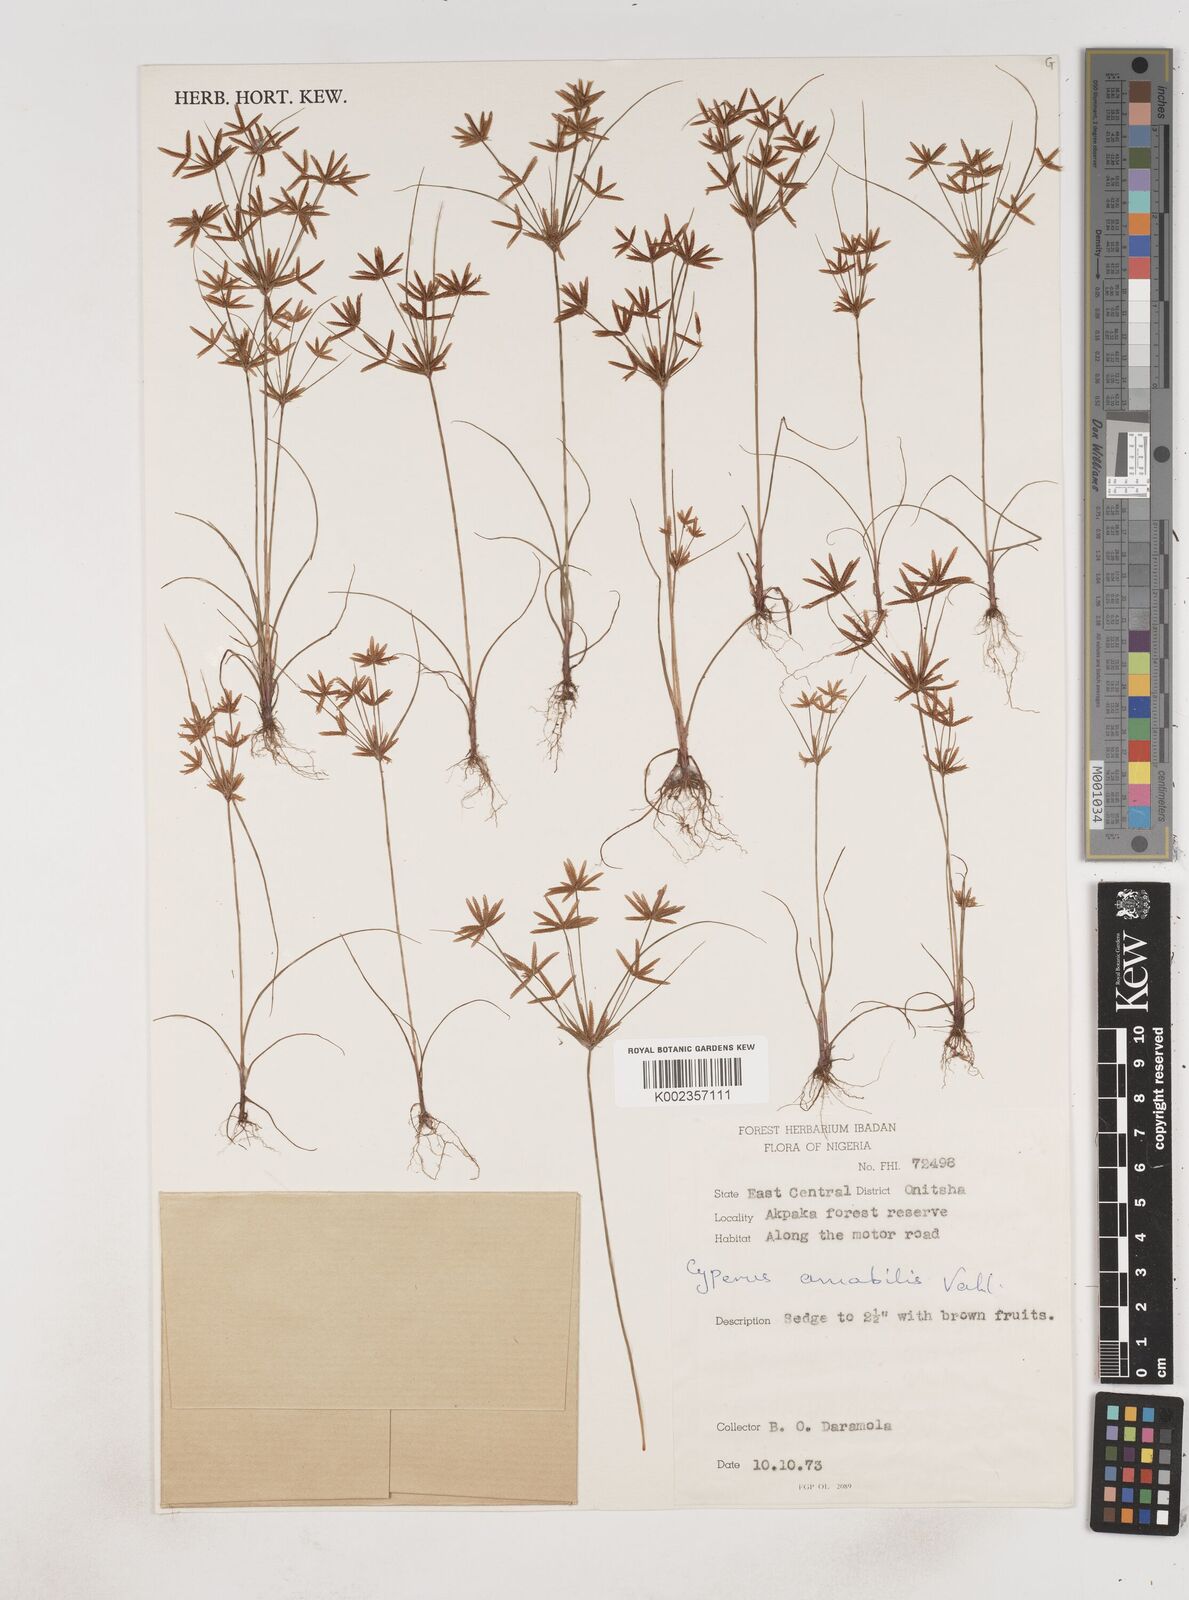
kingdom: Plantae
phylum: Tracheophyta
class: Liliopsida
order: Poales
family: Cyperaceae
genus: Cyperus
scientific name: Cyperus amabilis
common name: Foothill flat sedge
